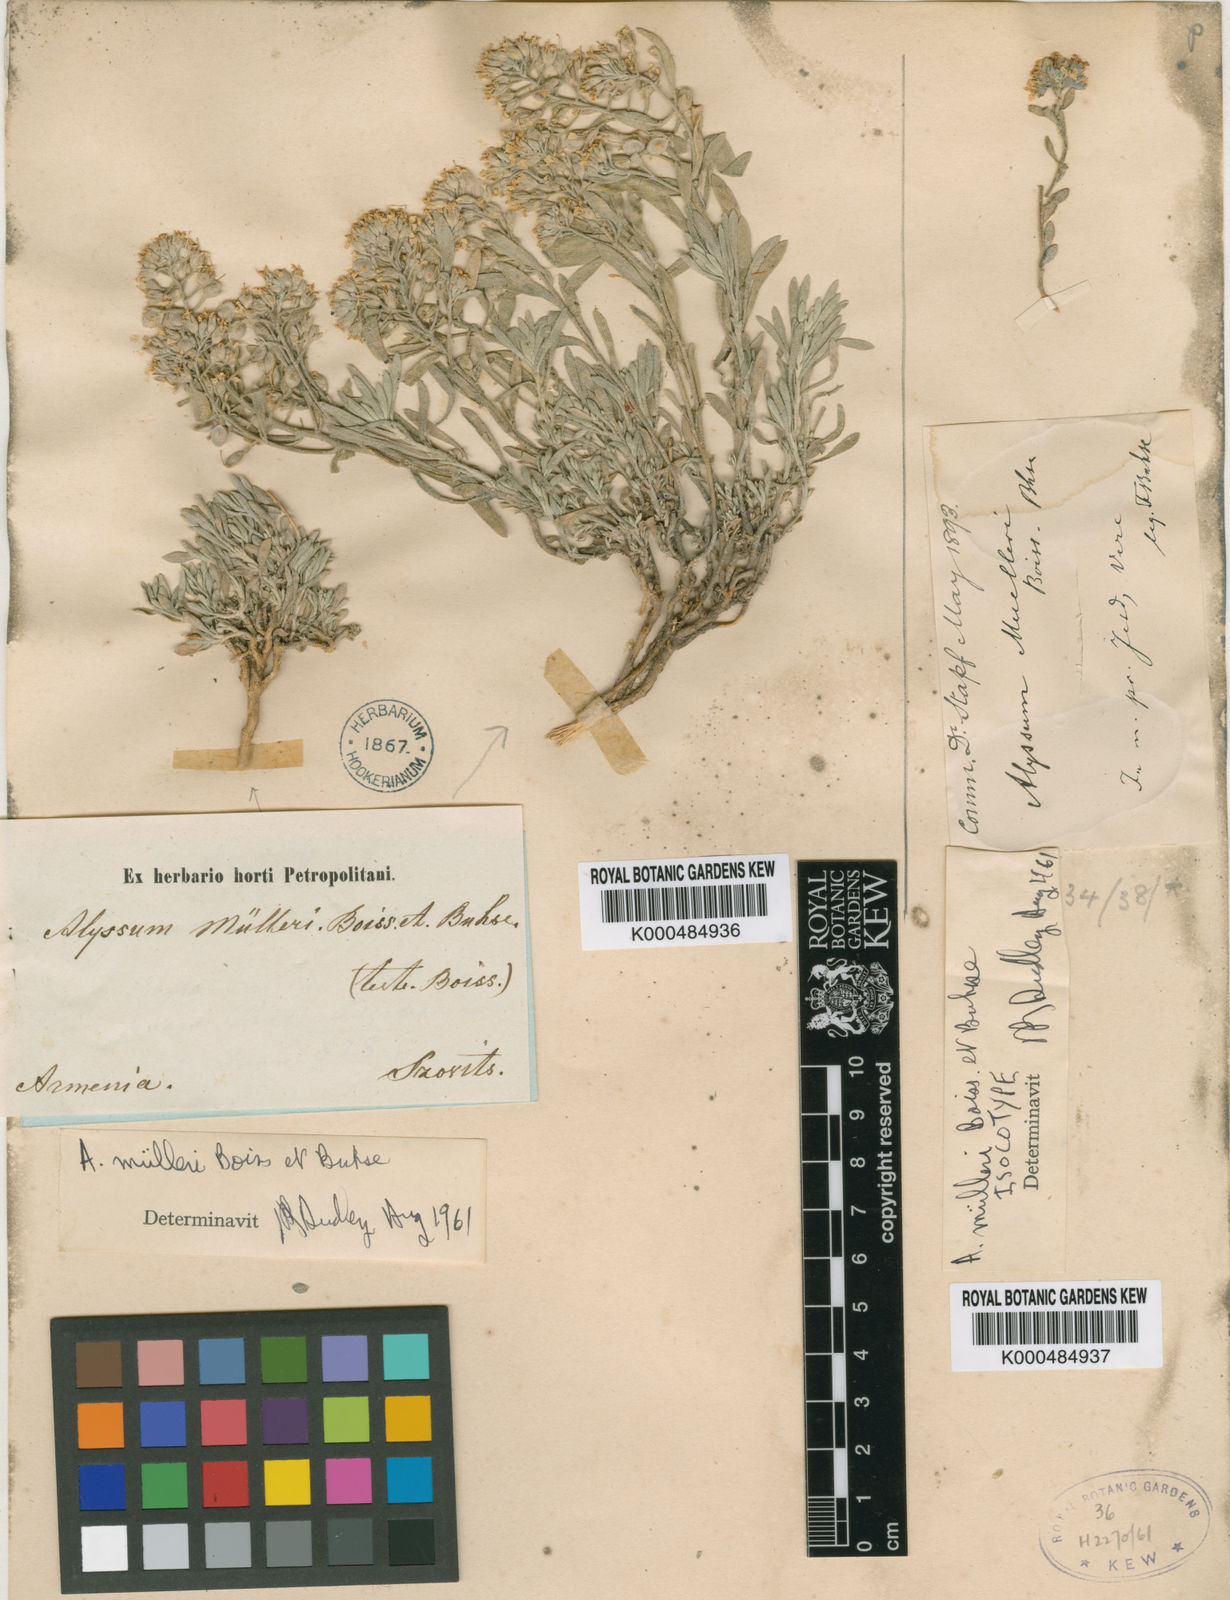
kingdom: Plantae
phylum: Tracheophyta
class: Magnoliopsida
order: Brassicales
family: Brassicaceae
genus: Alyssum
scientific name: Alyssum muelleri
